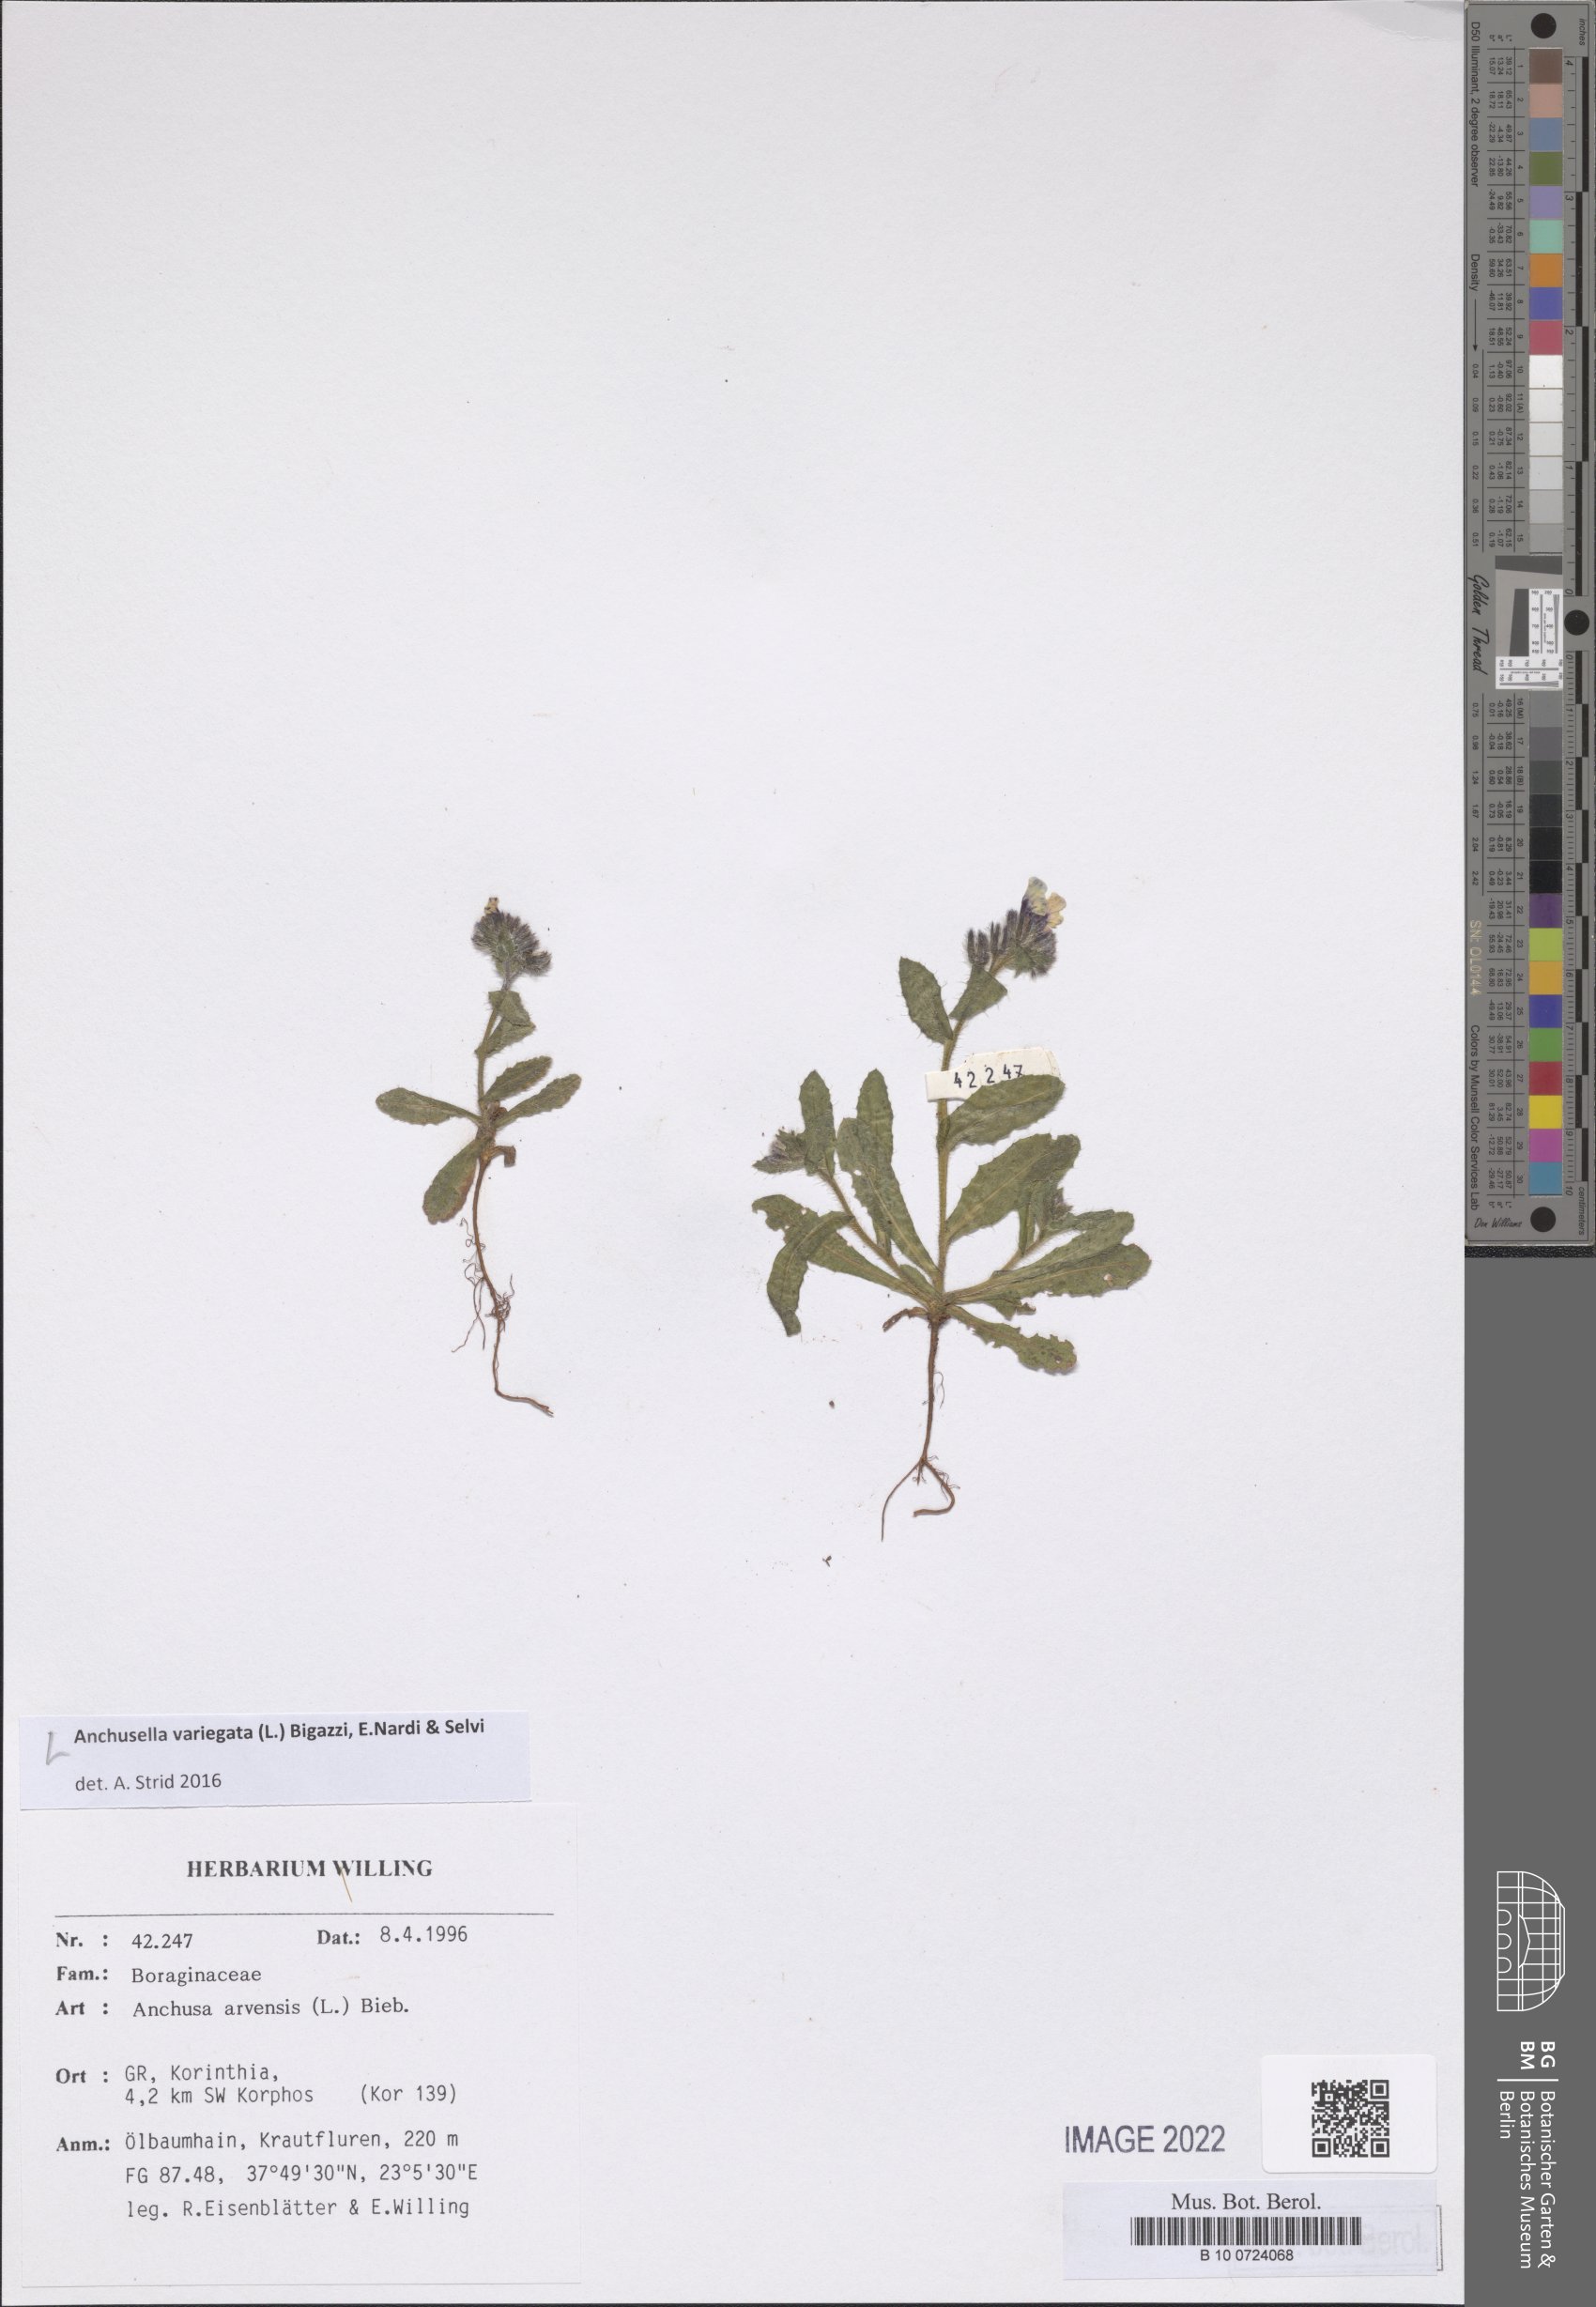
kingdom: Plantae
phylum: Tracheophyta
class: Magnoliopsida
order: Boraginales
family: Boraginaceae
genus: Anchusella
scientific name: Anchusella variegata
